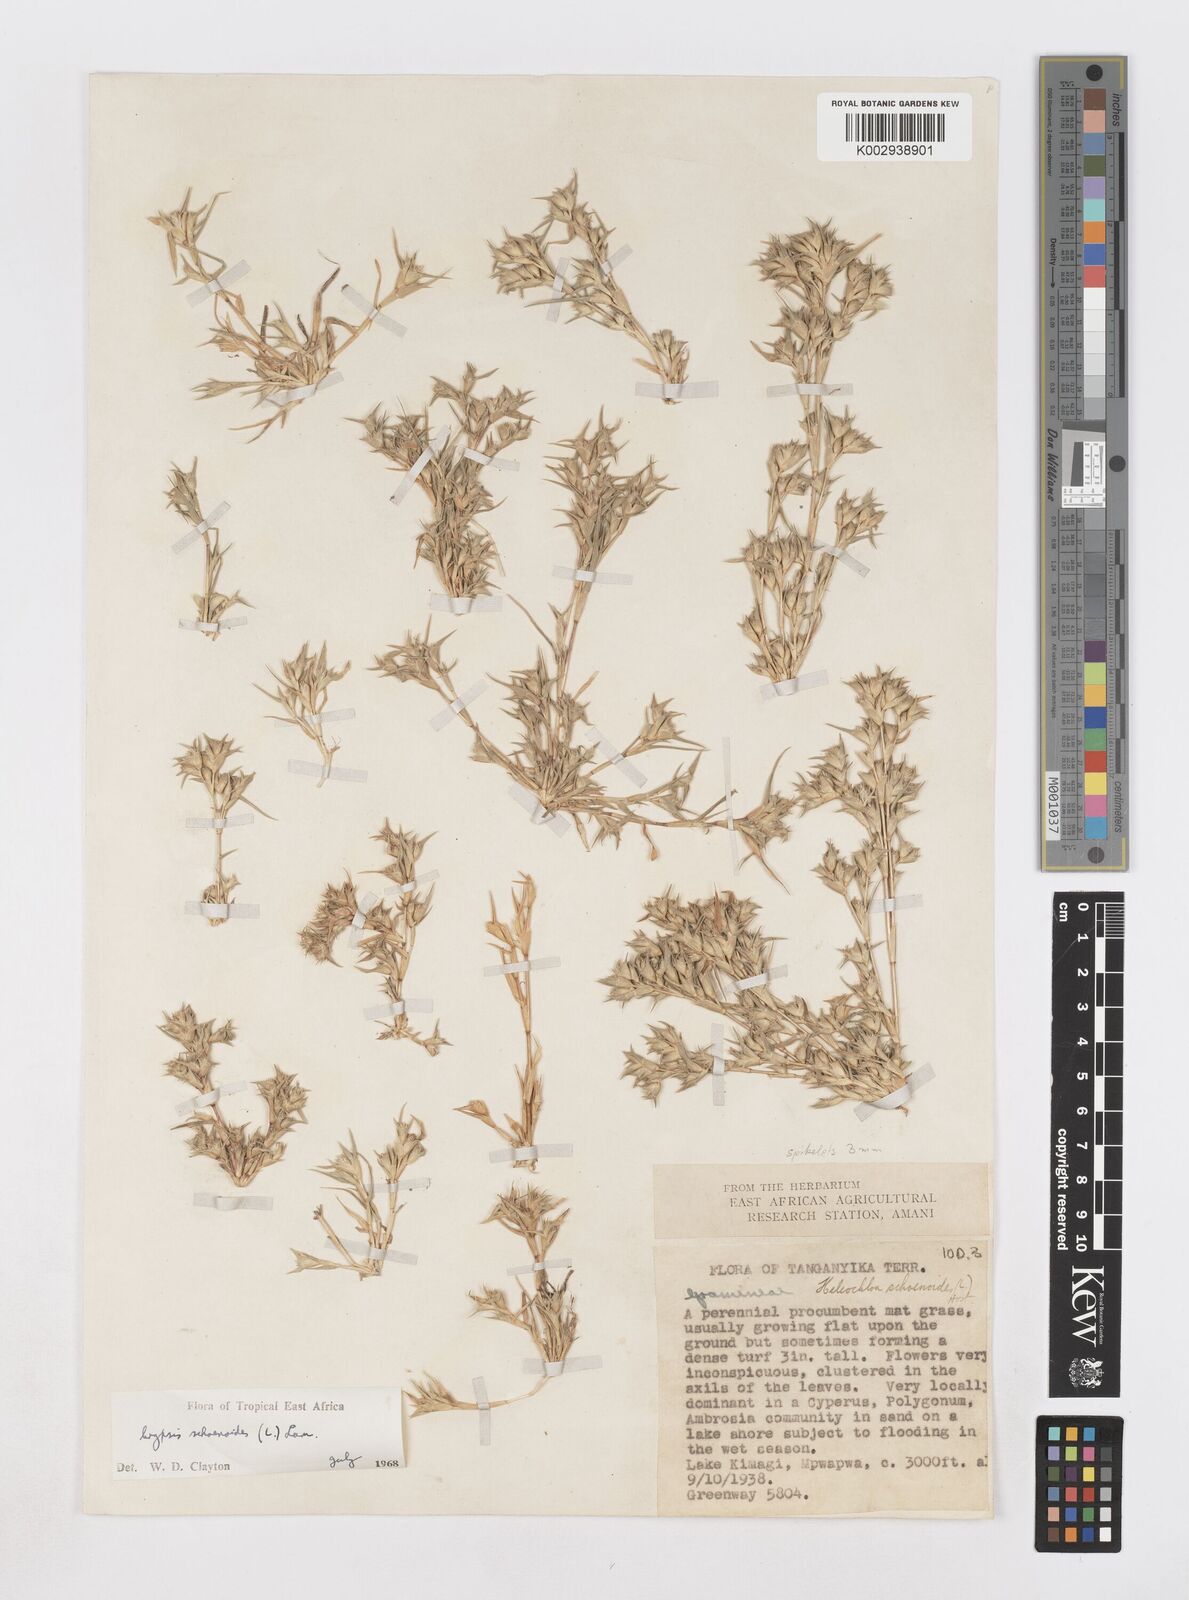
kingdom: Animalia
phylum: Arthropoda
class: Insecta
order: Coleoptera
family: Tenebrionidae
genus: Crypsis
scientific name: Crypsis
